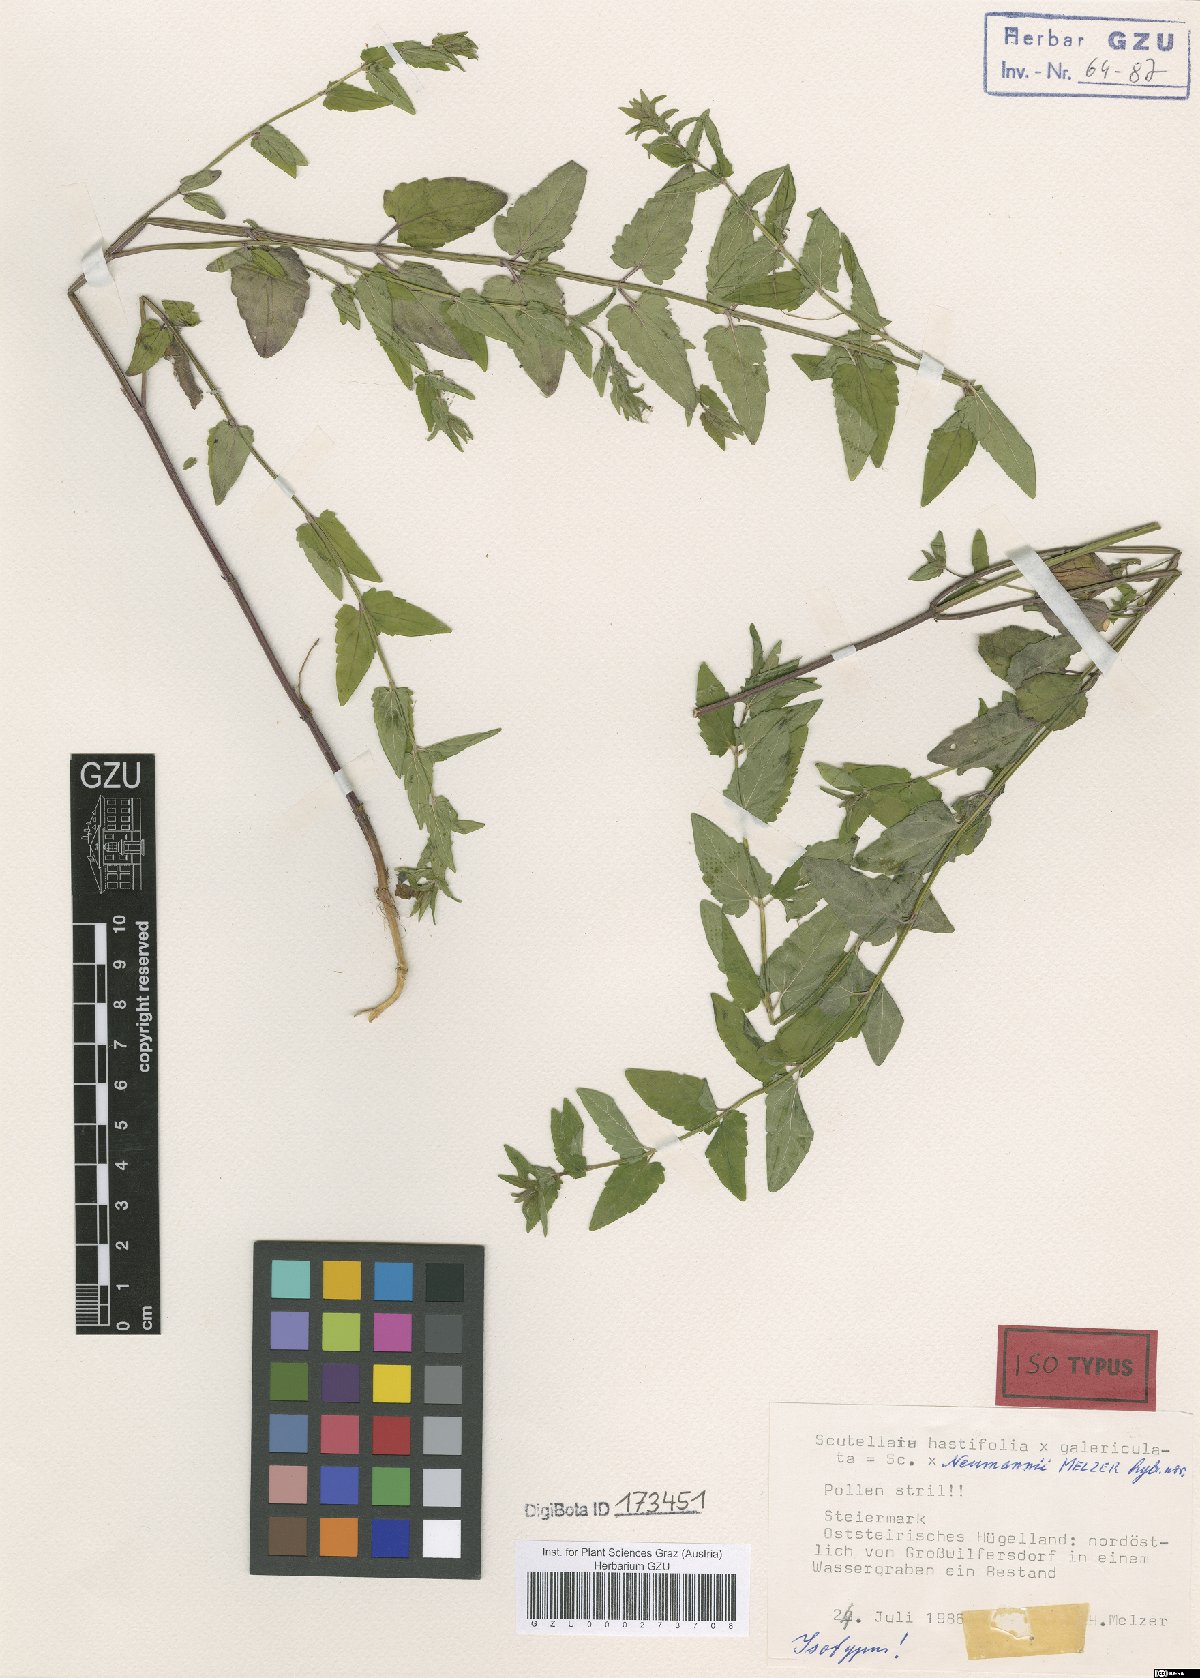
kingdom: Plantae
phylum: Tracheophyta
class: Magnoliopsida
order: Lamiales
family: Lamiaceae
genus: Scutellaria
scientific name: Scutellaria neumannii
